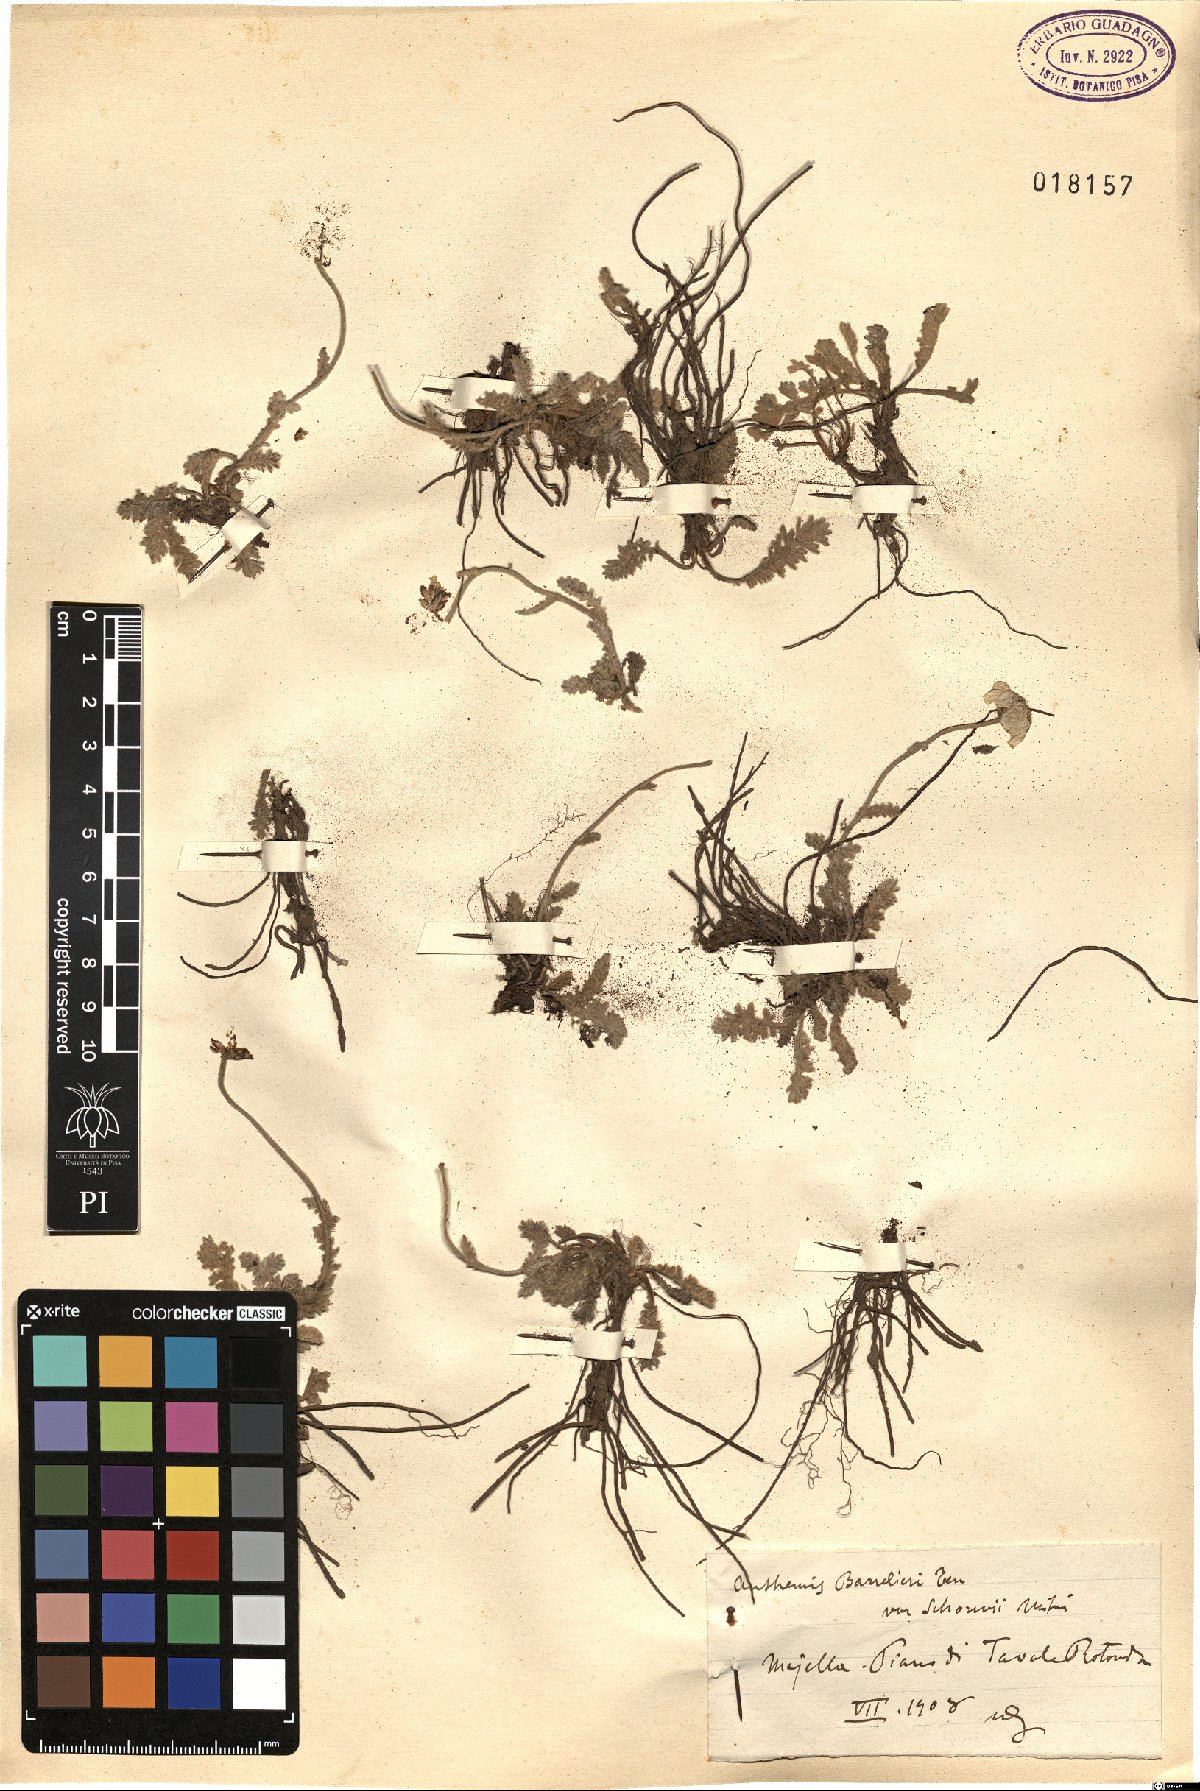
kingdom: Plantae
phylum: Tracheophyta
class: Magnoliopsida
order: Asterales
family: Asteraceae
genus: Achillea
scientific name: Achillea barrelieri
